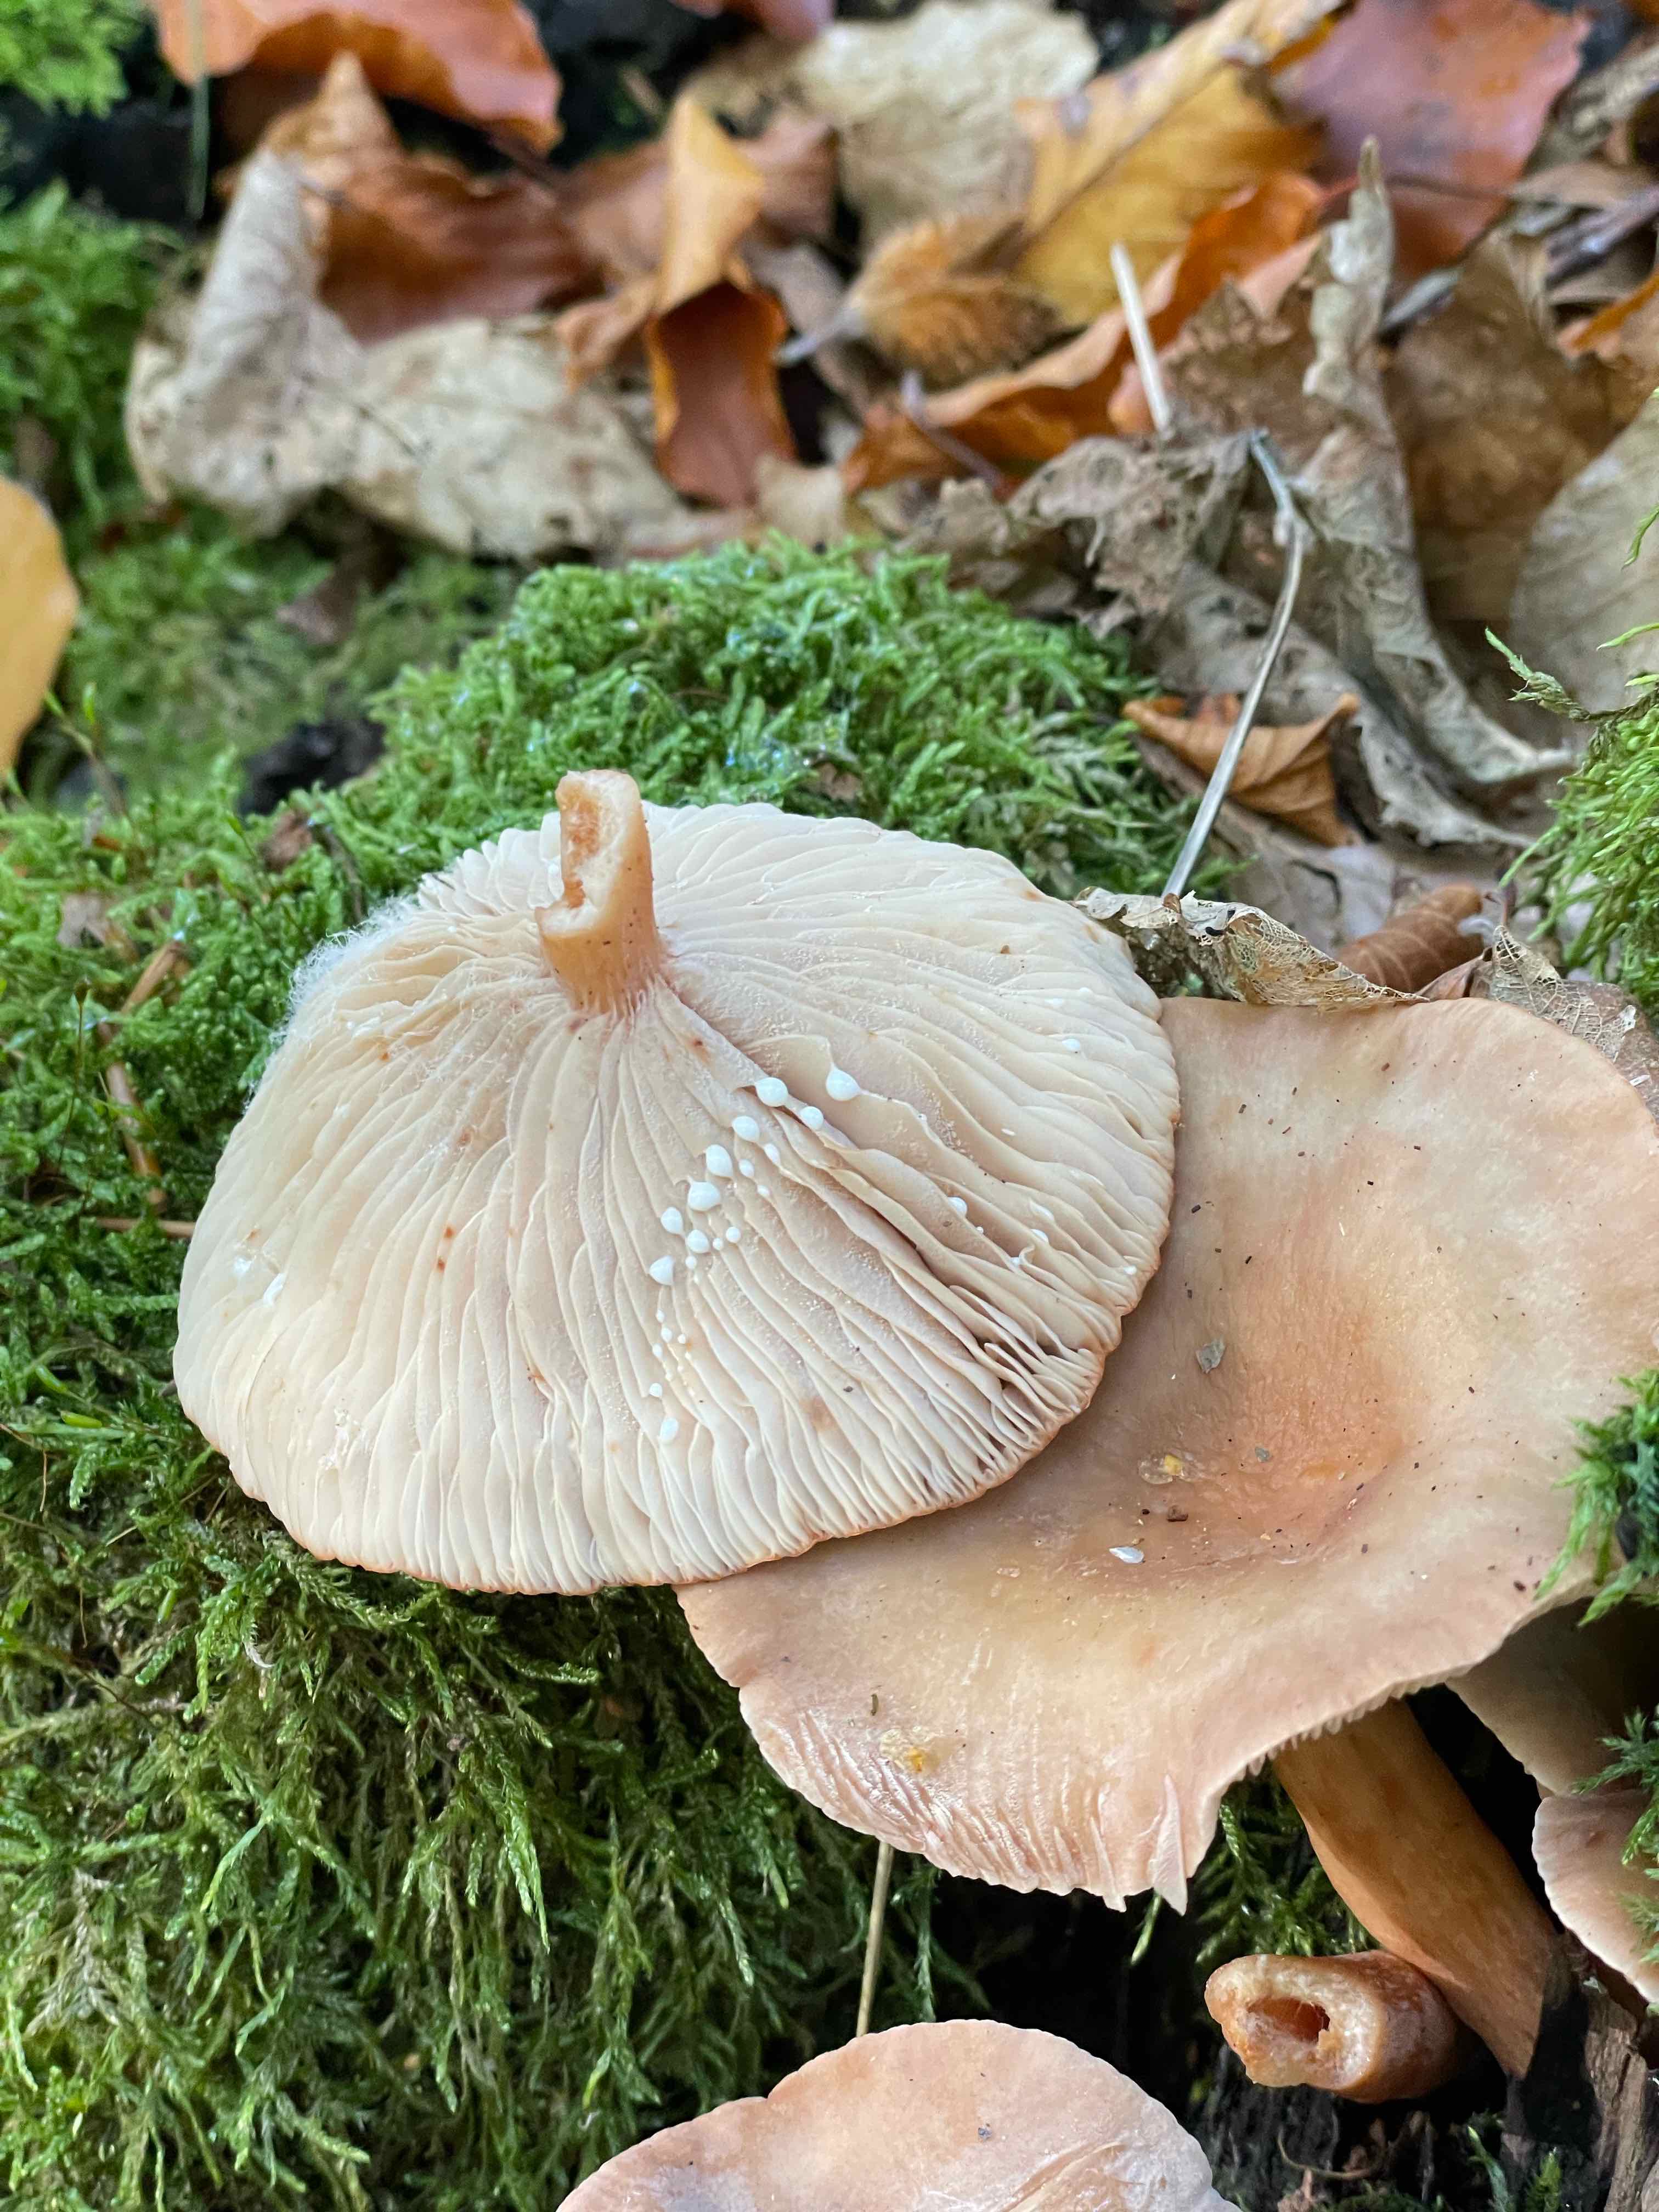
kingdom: Fungi
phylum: Basidiomycota
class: Agaricomycetes
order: Russulales
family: Russulaceae
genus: Lactarius
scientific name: Lactarius subdulcis
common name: sødlig mælkehat
